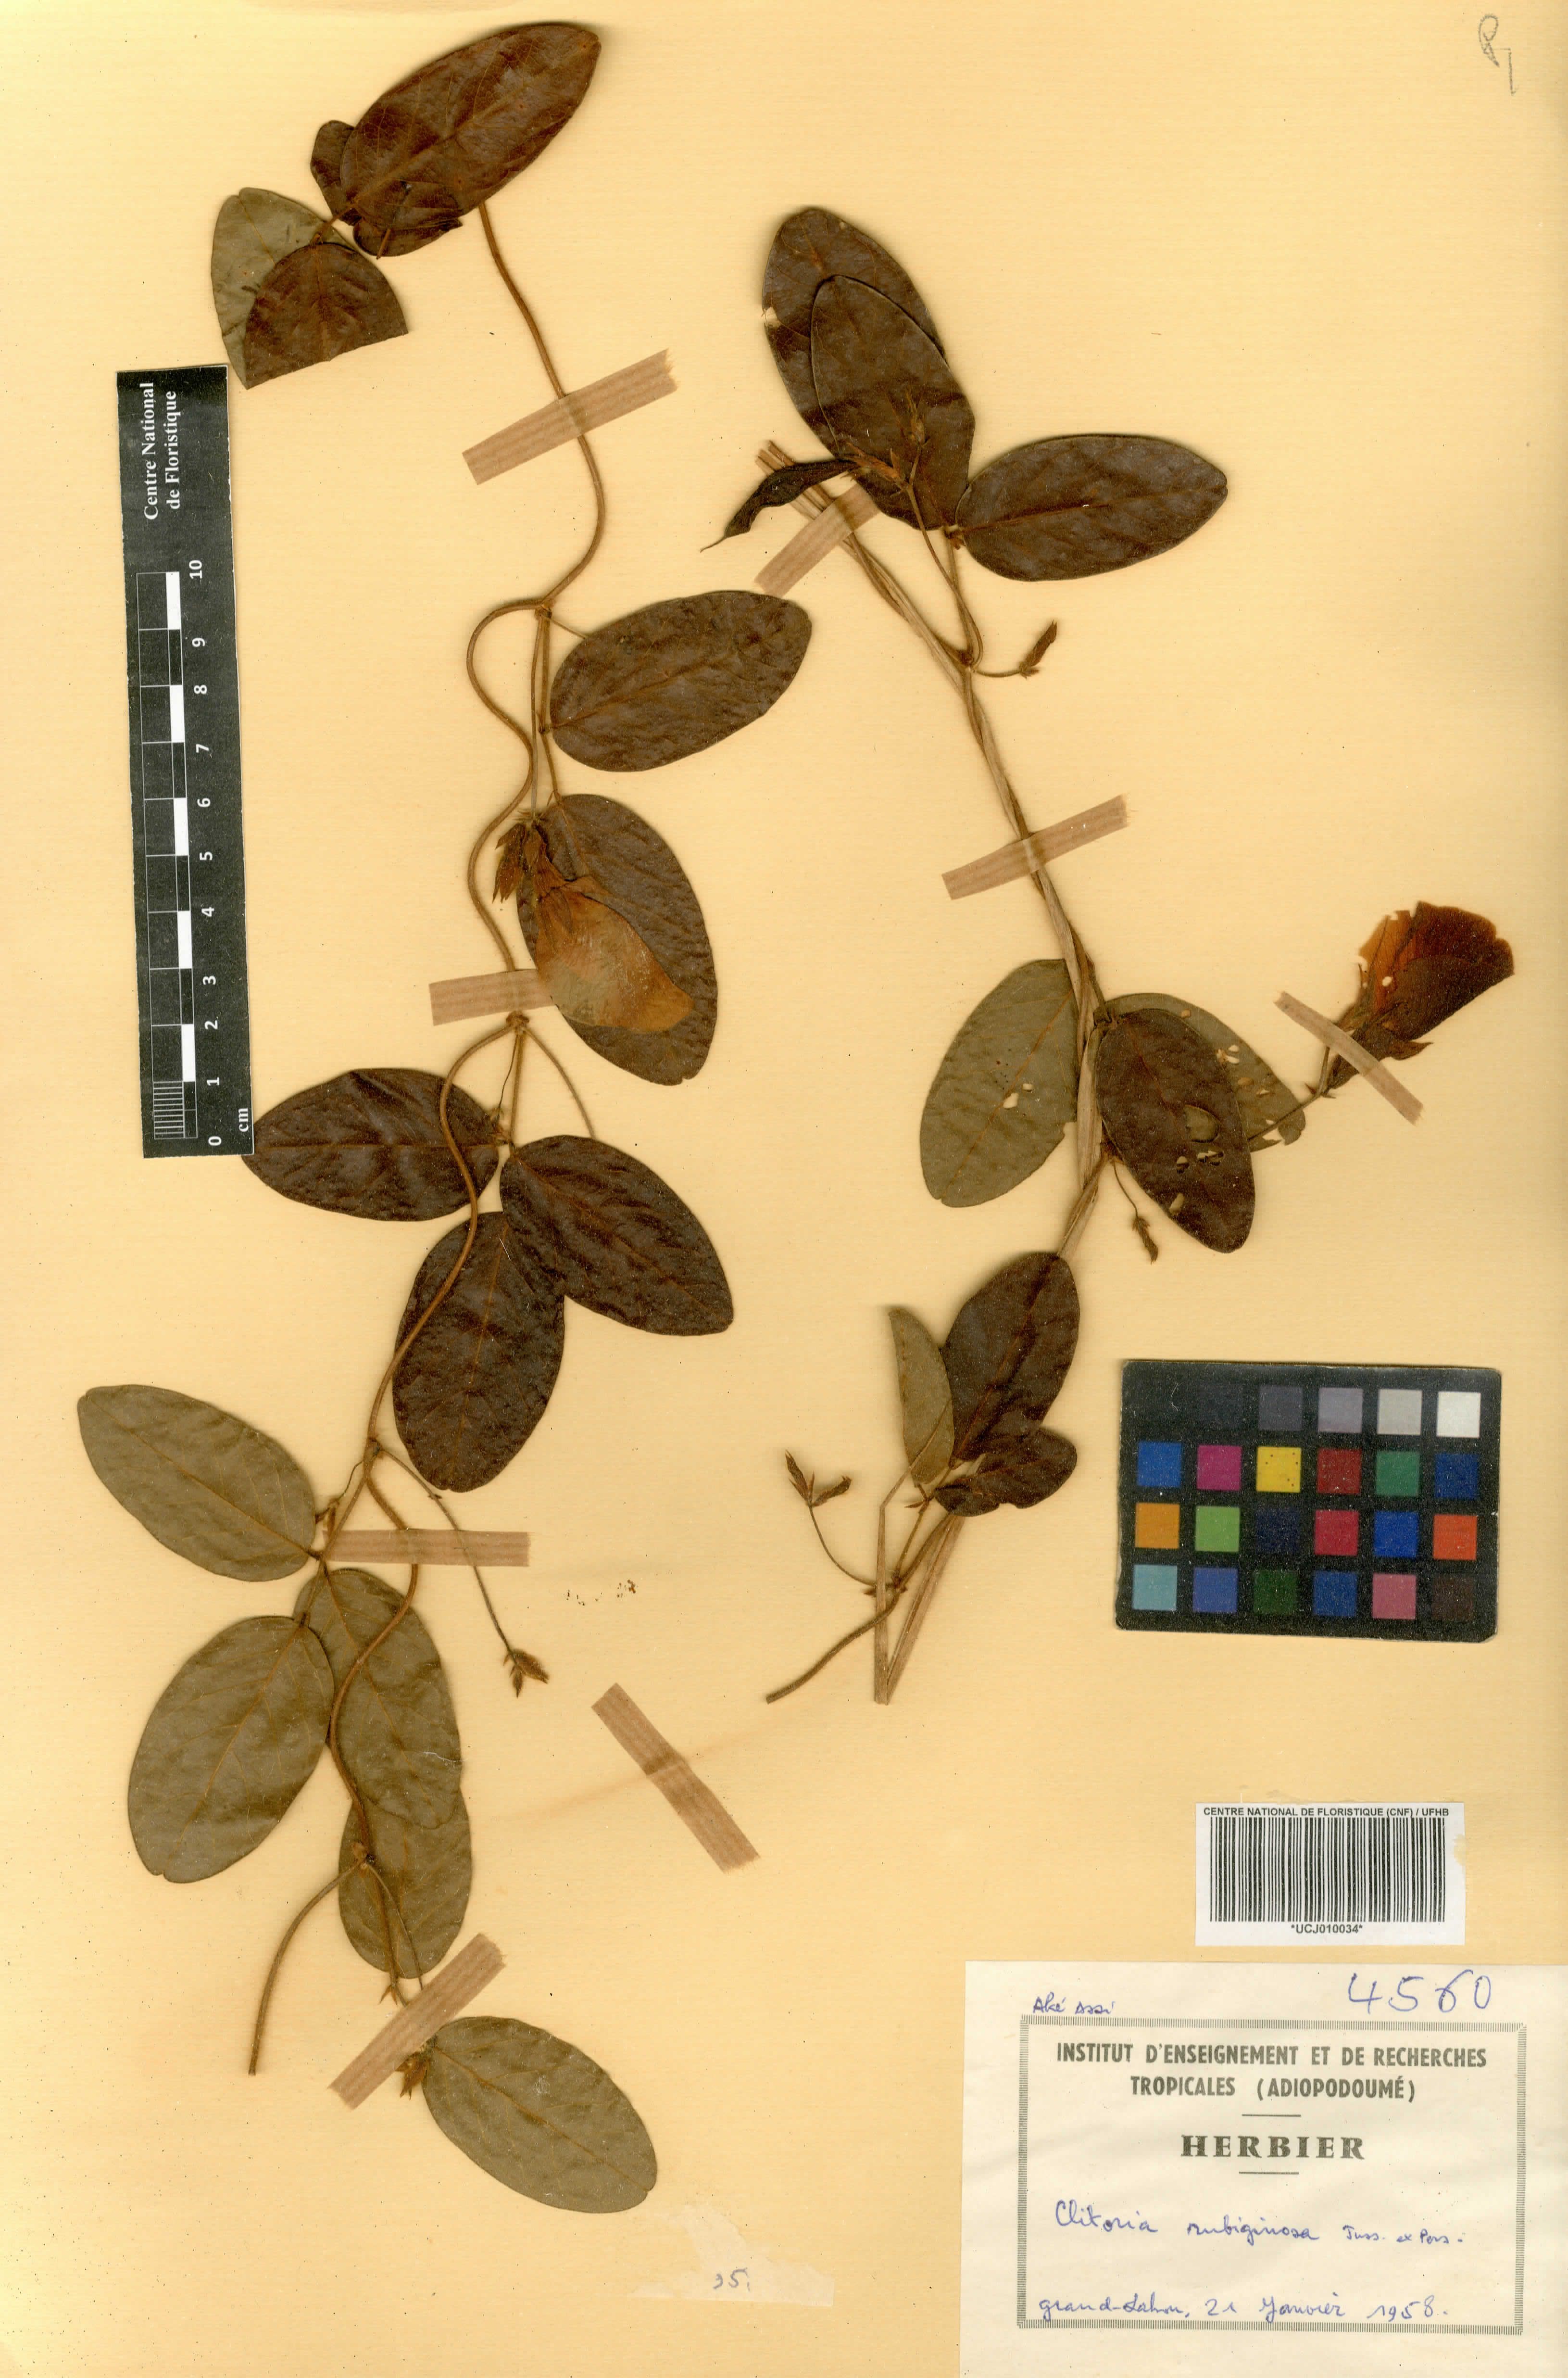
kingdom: Plantae
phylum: Tracheophyta
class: Magnoliopsida
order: Fabales
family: Fabaceae
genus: Clitoria
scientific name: Clitoria falcata
